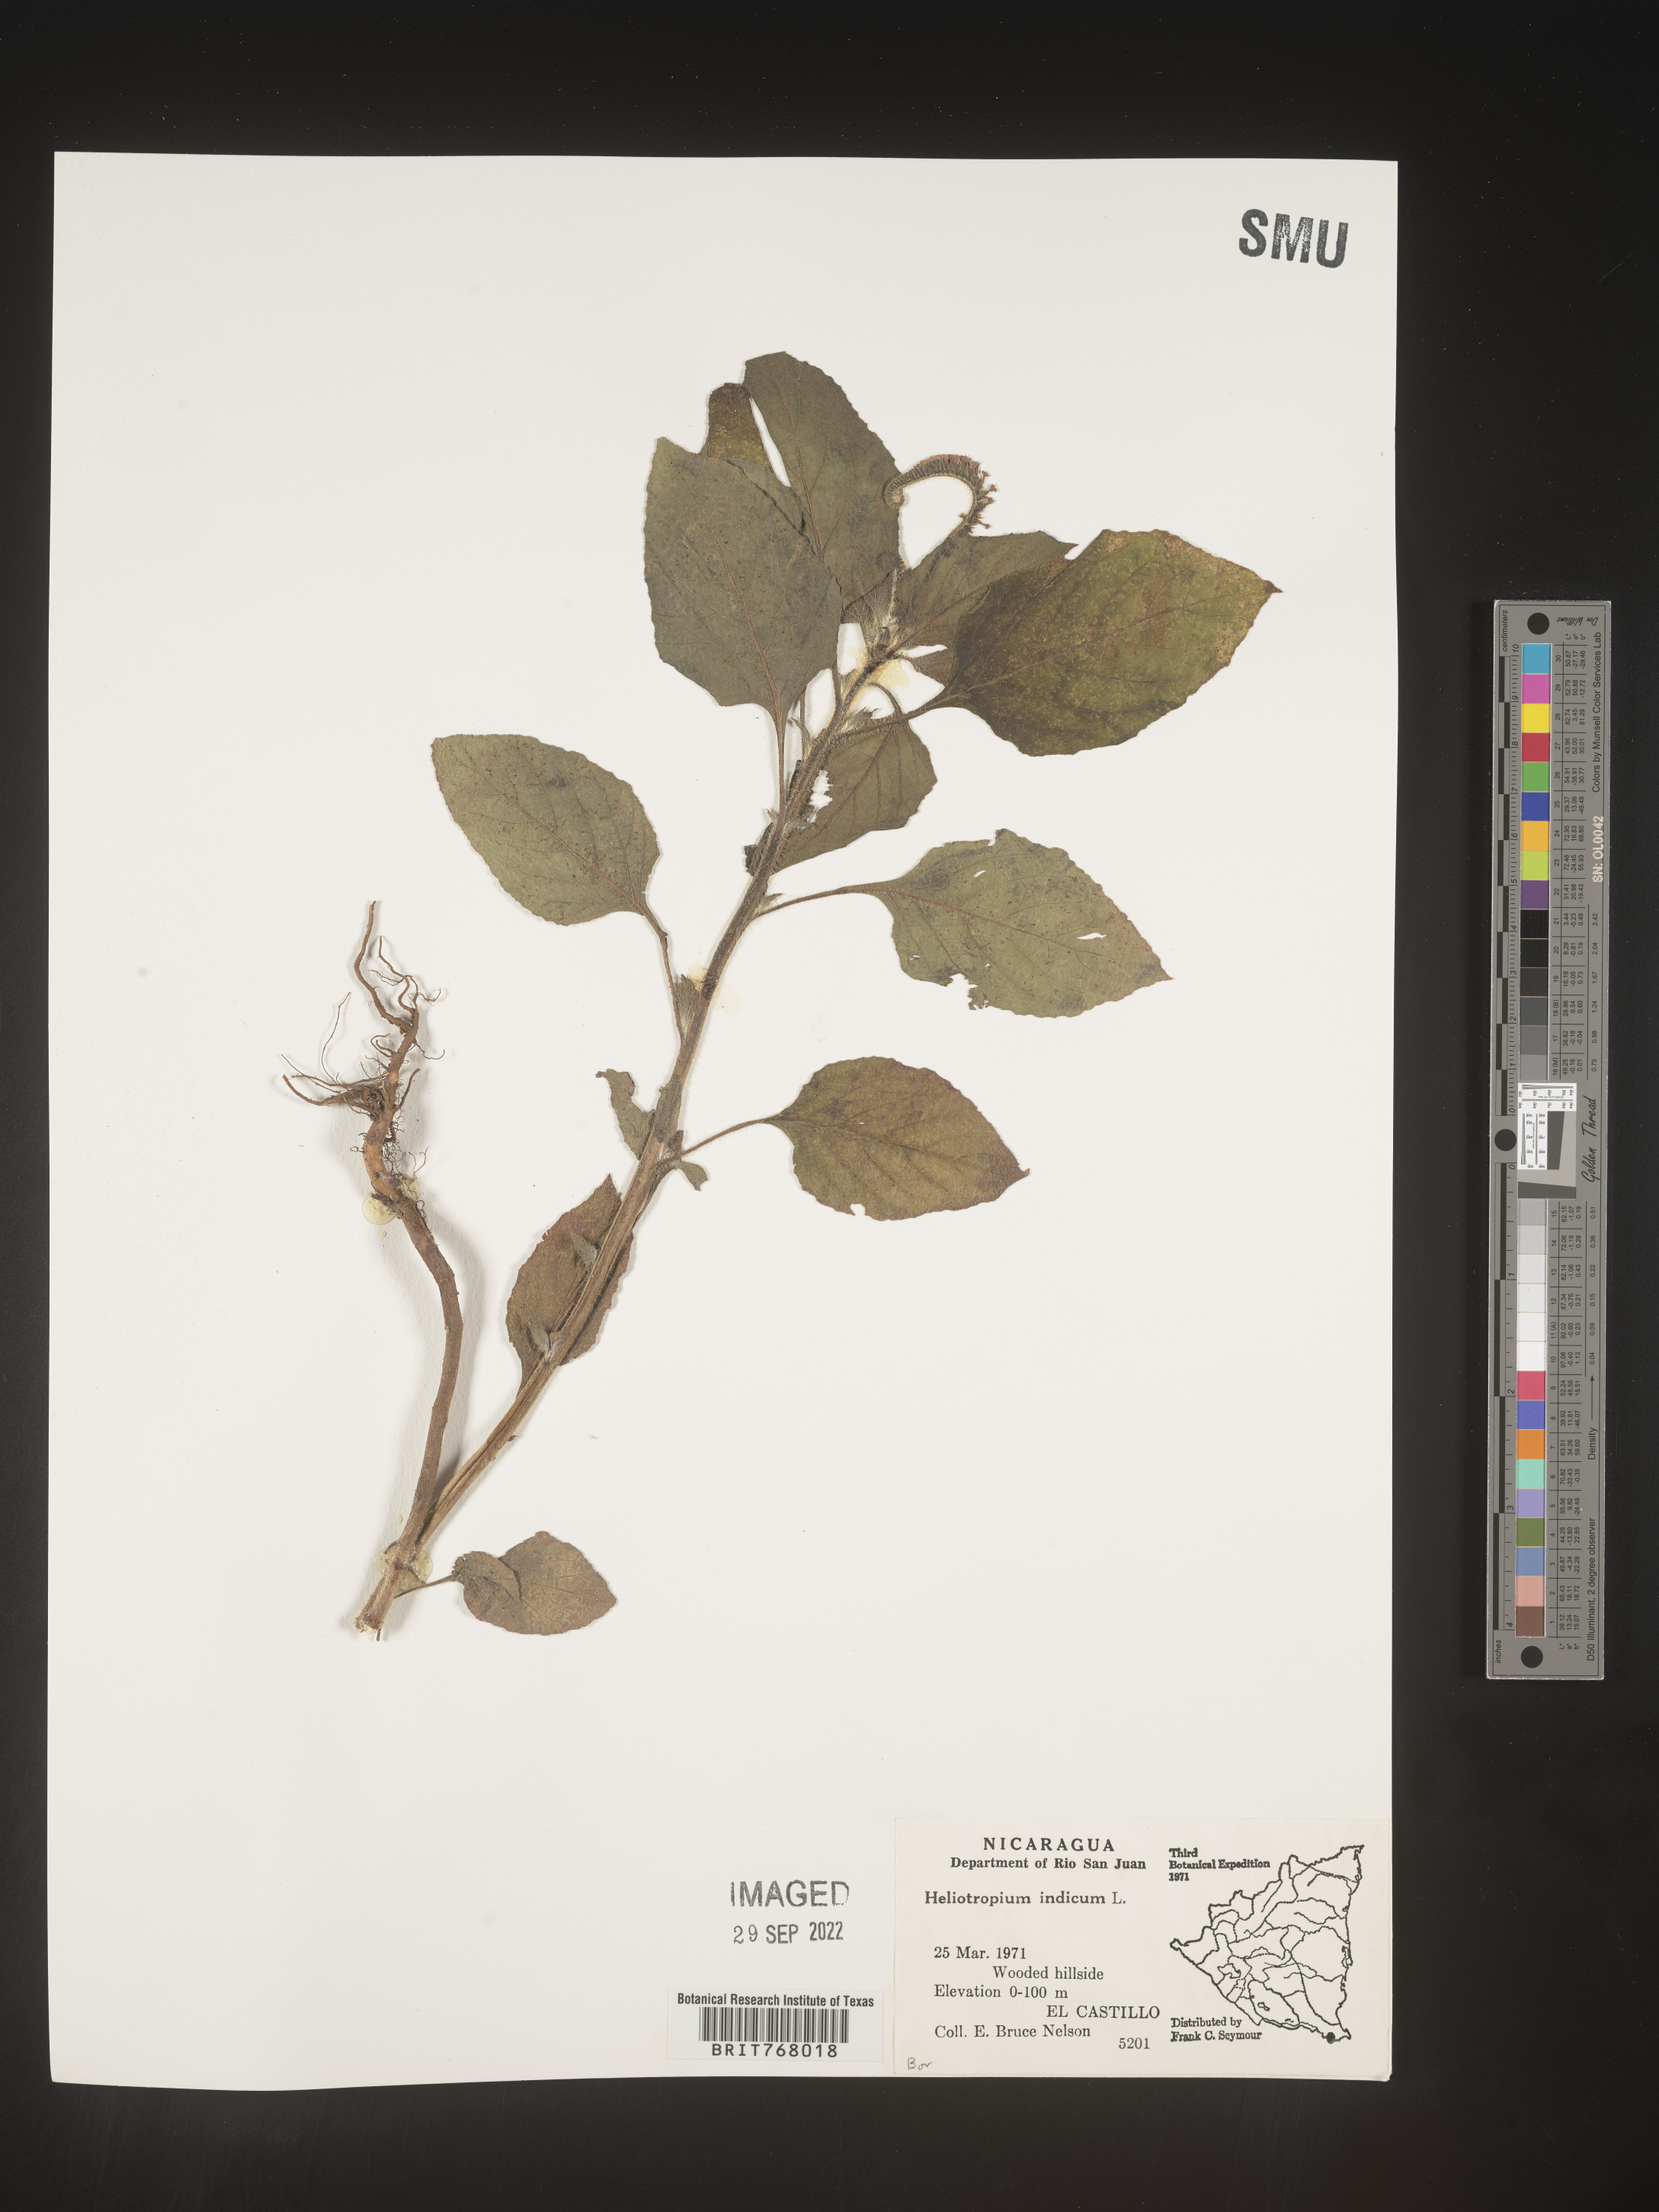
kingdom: Plantae
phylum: Tracheophyta
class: Magnoliopsida
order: Boraginales
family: Heliotropiaceae
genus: Heliotropium
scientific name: Heliotropium
